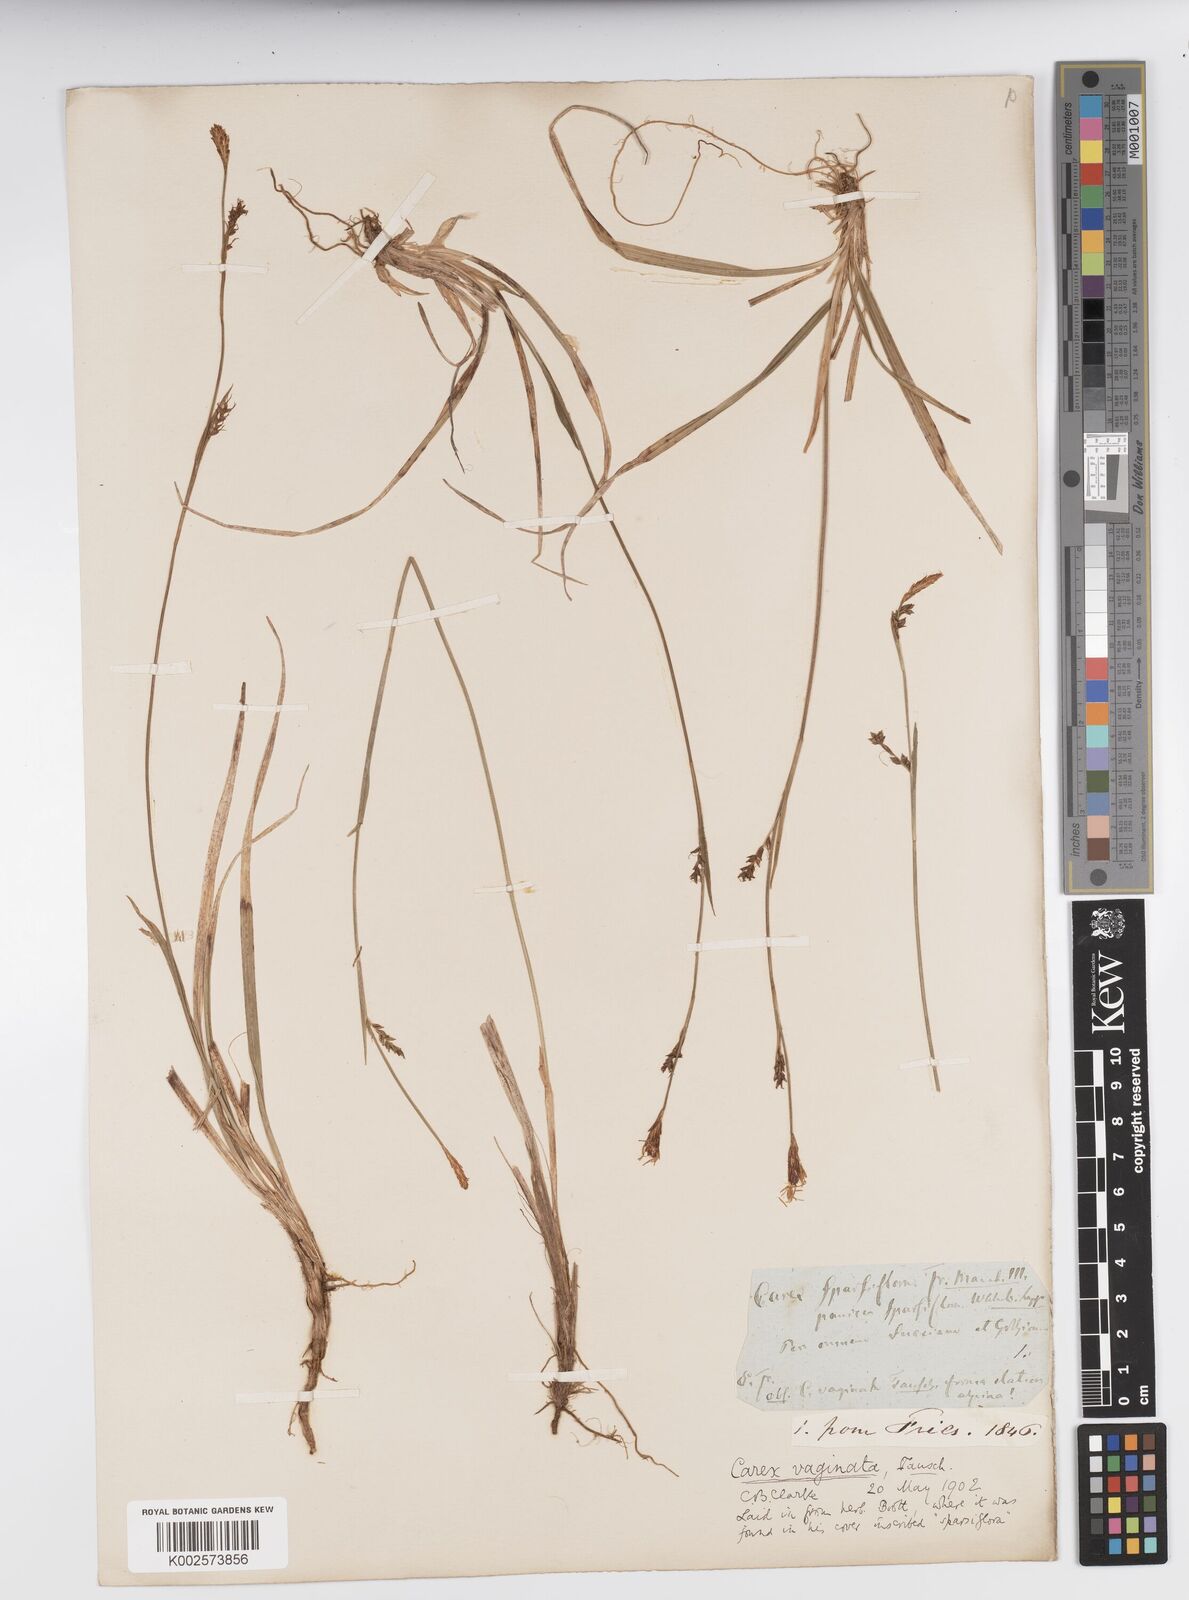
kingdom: Plantae
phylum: Tracheophyta
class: Liliopsida
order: Poales
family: Cyperaceae
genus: Carex
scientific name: Carex vaginata
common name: Sheathed sedge
